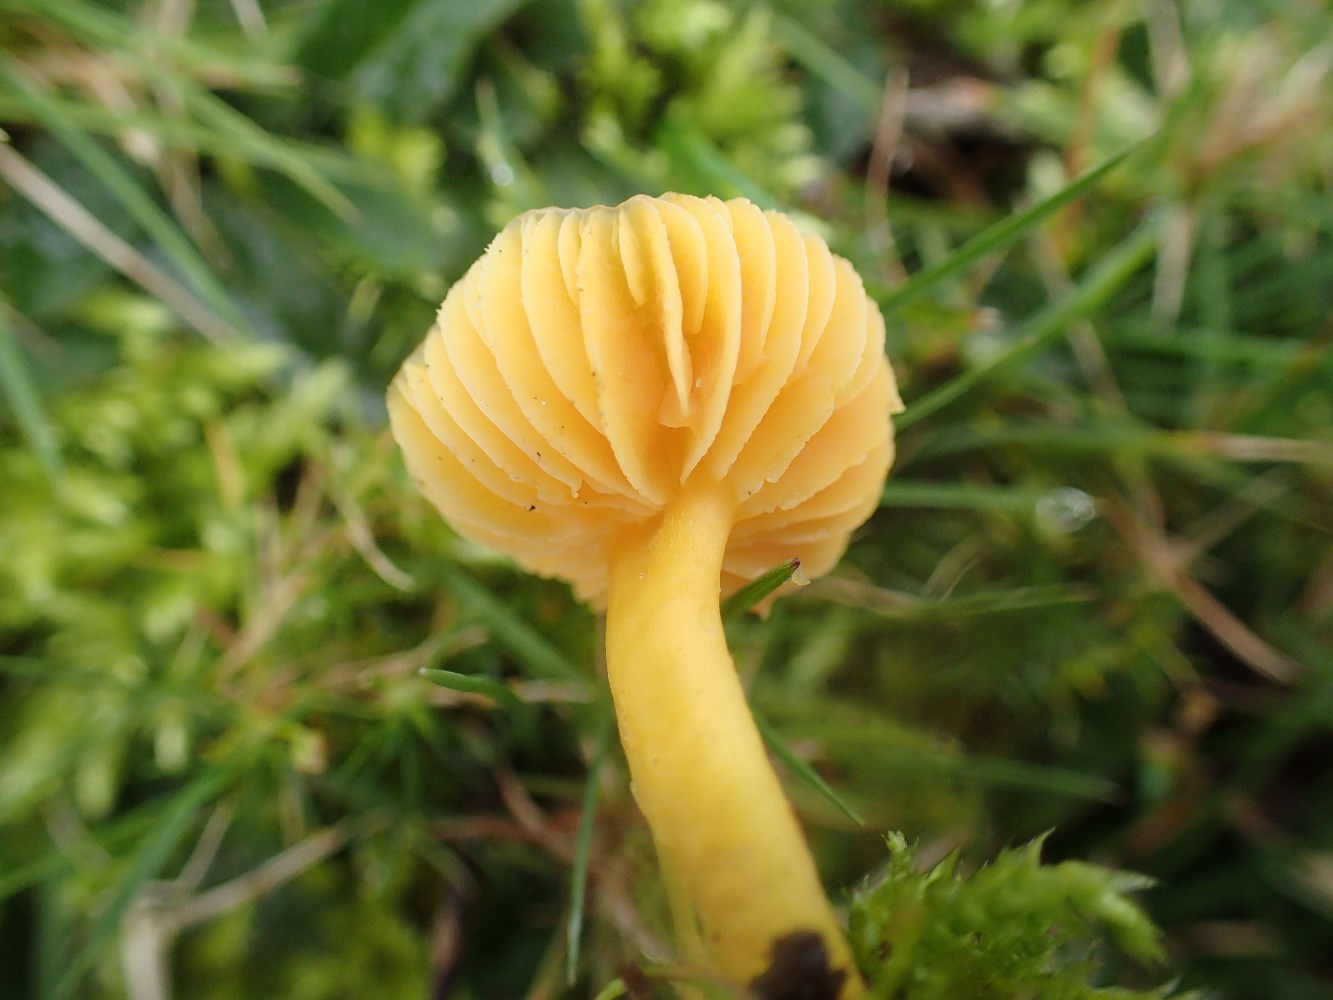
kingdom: Fungi
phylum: Basidiomycota
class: Agaricomycetes
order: Agaricales
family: Hygrophoraceae
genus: Hygrocybe
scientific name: Hygrocybe chlorophana
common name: gul vokshat
